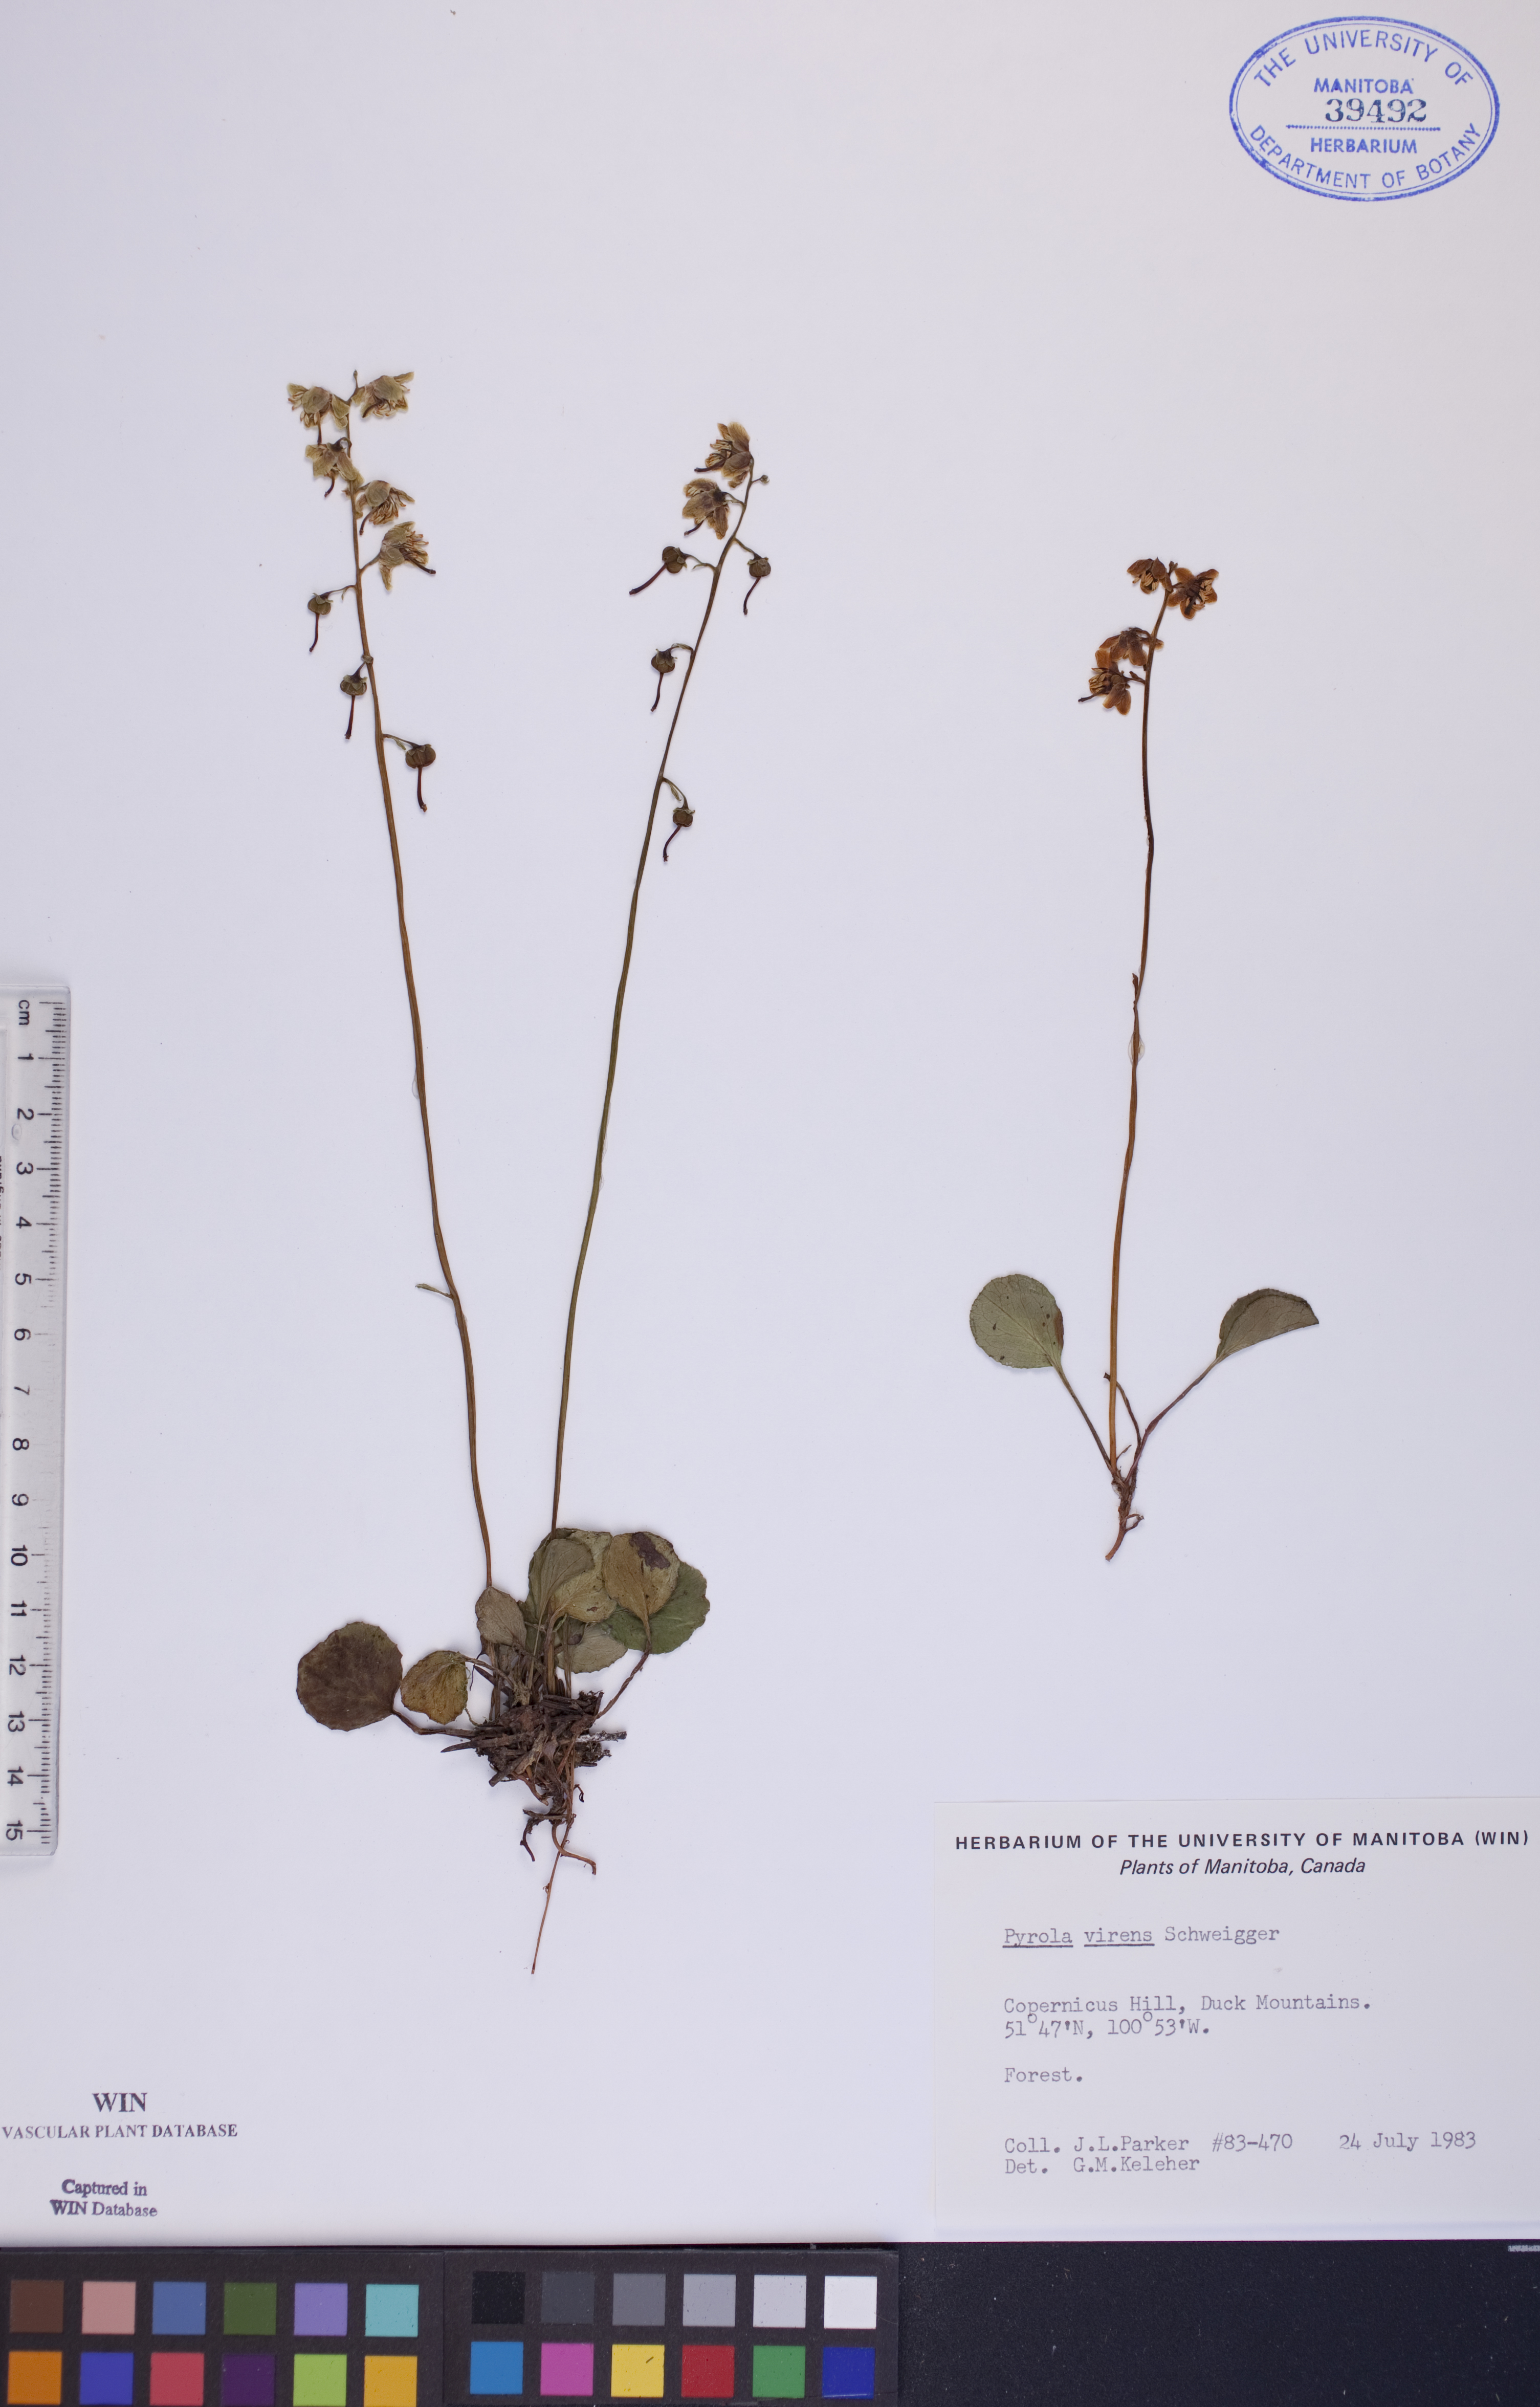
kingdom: Plantae
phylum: Tracheophyta
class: Magnoliopsida
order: Ericales
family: Ericaceae
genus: Pyrola
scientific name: Pyrola chlorantha
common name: Green wintergreen
